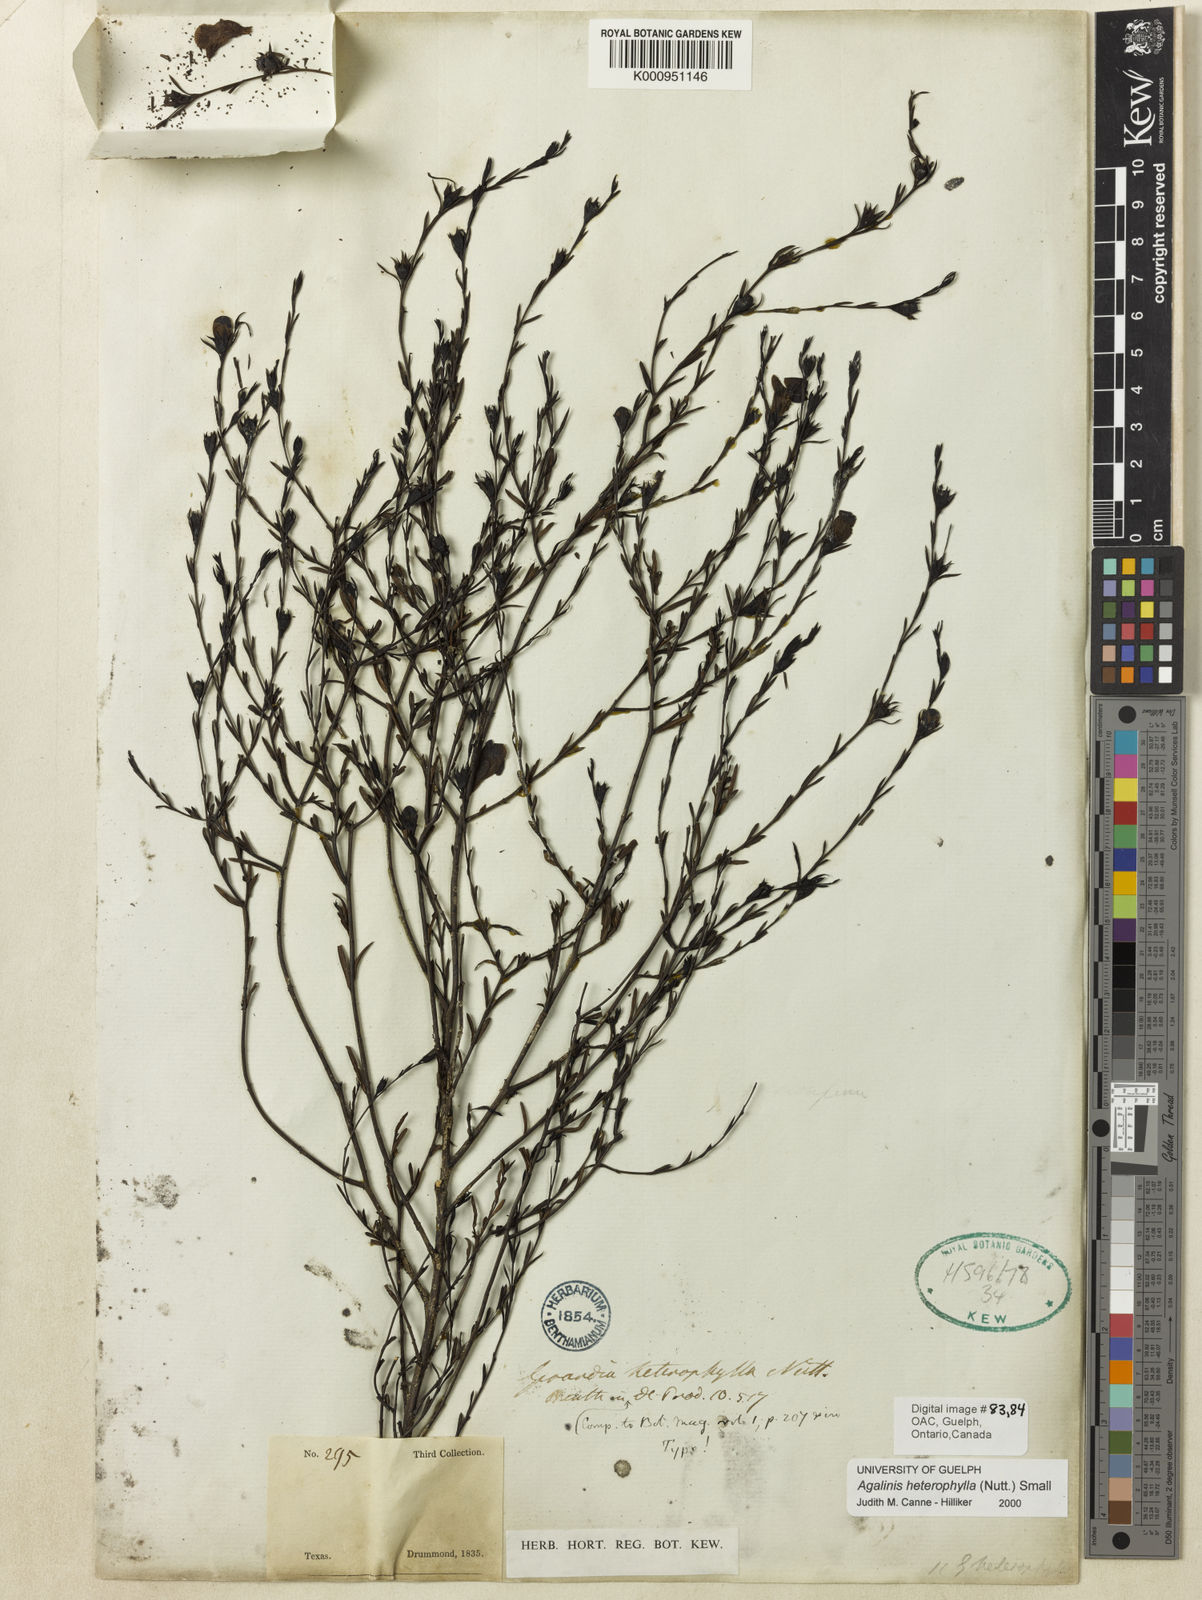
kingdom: Plantae
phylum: Tracheophyta
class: Magnoliopsida
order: Lamiales
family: Orobanchaceae
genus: Agalinis
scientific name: Agalinis heterophylla
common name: Prairie agalinis
